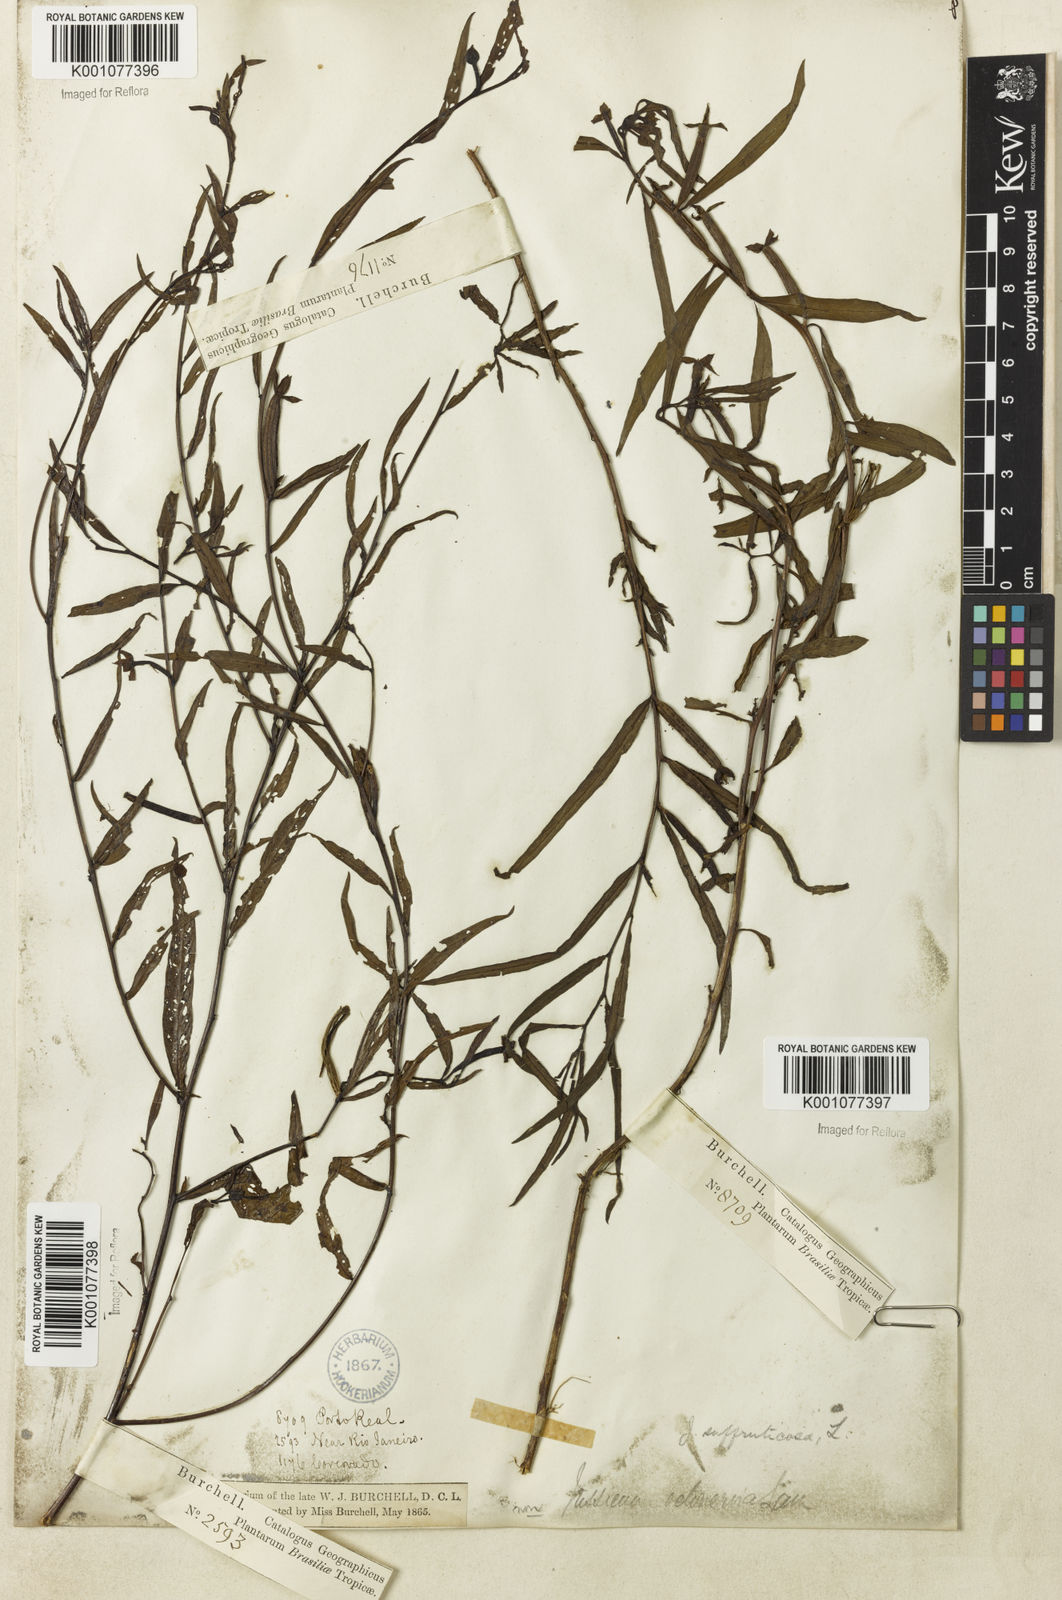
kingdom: Plantae
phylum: Tracheophyta
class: Magnoliopsida
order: Myrtales
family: Onagraceae
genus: Ludwigia
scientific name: Ludwigia octovalvis
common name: Water-primrose
